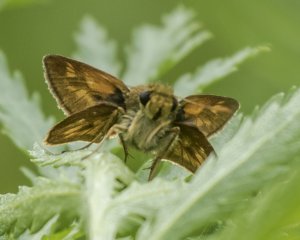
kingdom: Animalia
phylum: Arthropoda
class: Insecta
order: Lepidoptera
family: Hesperiidae
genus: Lon
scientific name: Lon hobomok
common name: Hobomok Skipper
